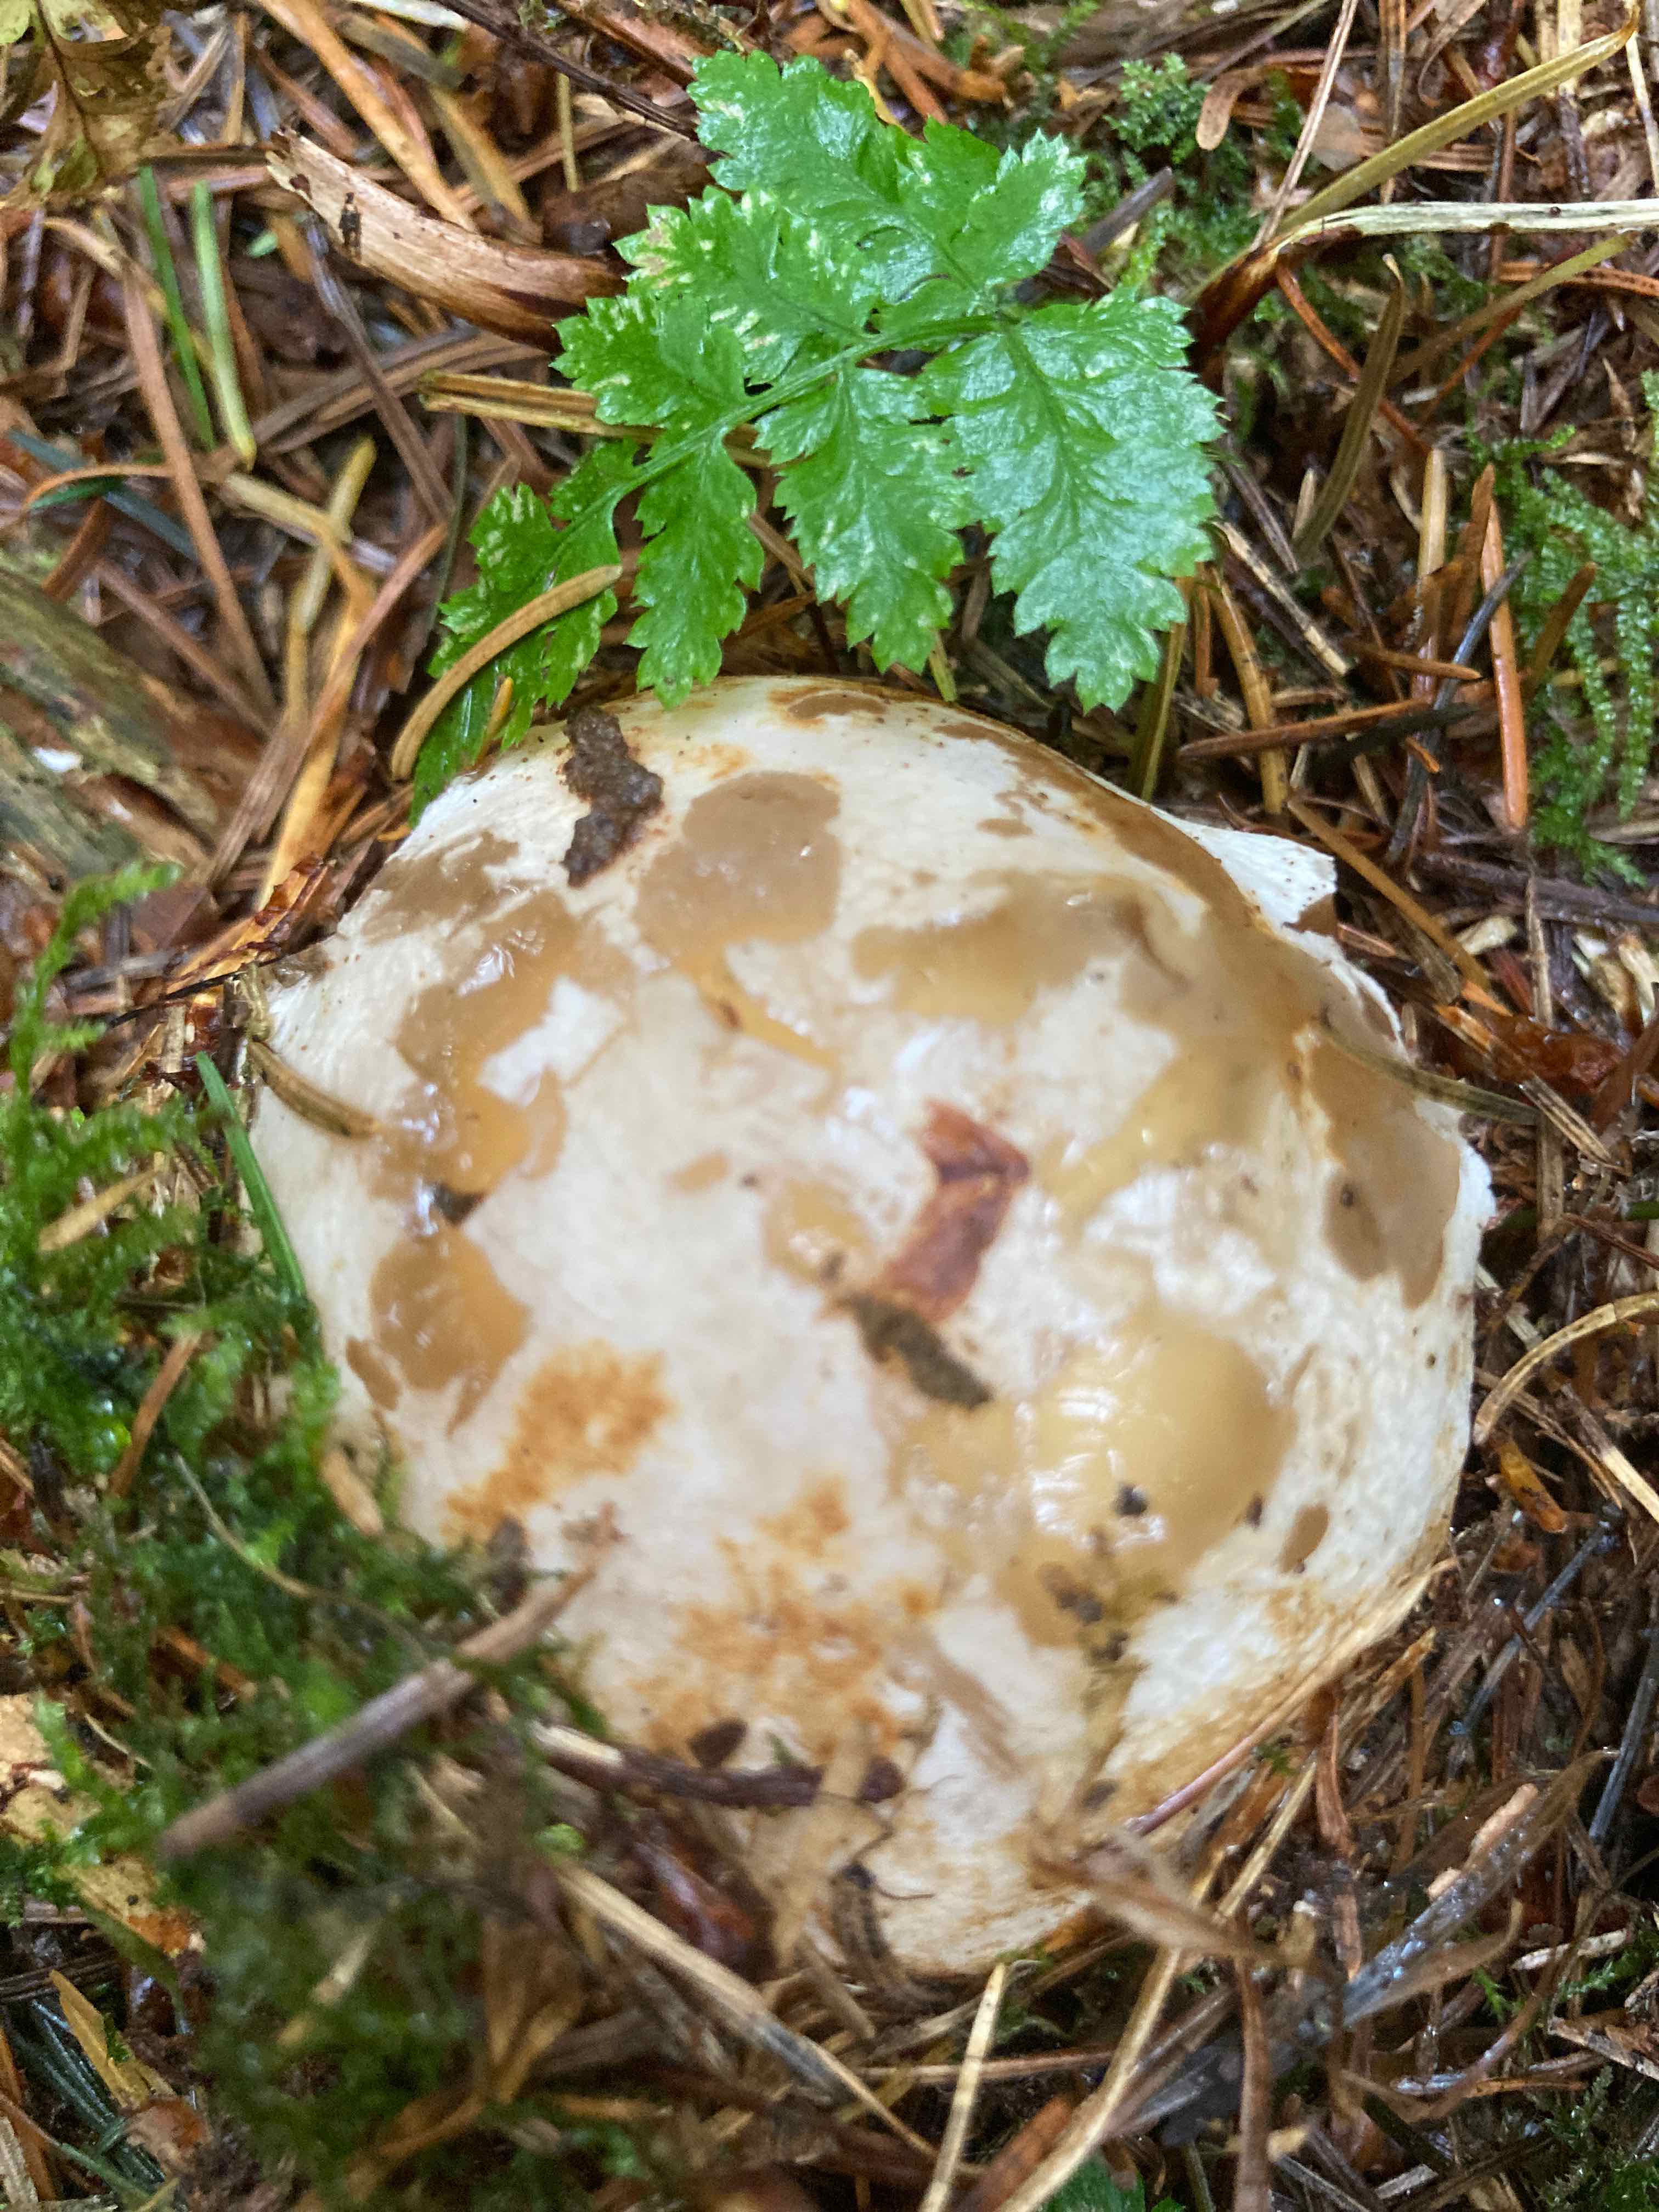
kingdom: Fungi
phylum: Basidiomycota
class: Agaricomycetes
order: Phallales
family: Phallaceae
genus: Phallus
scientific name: Phallus impudicus
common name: almindelig stinksvamp
